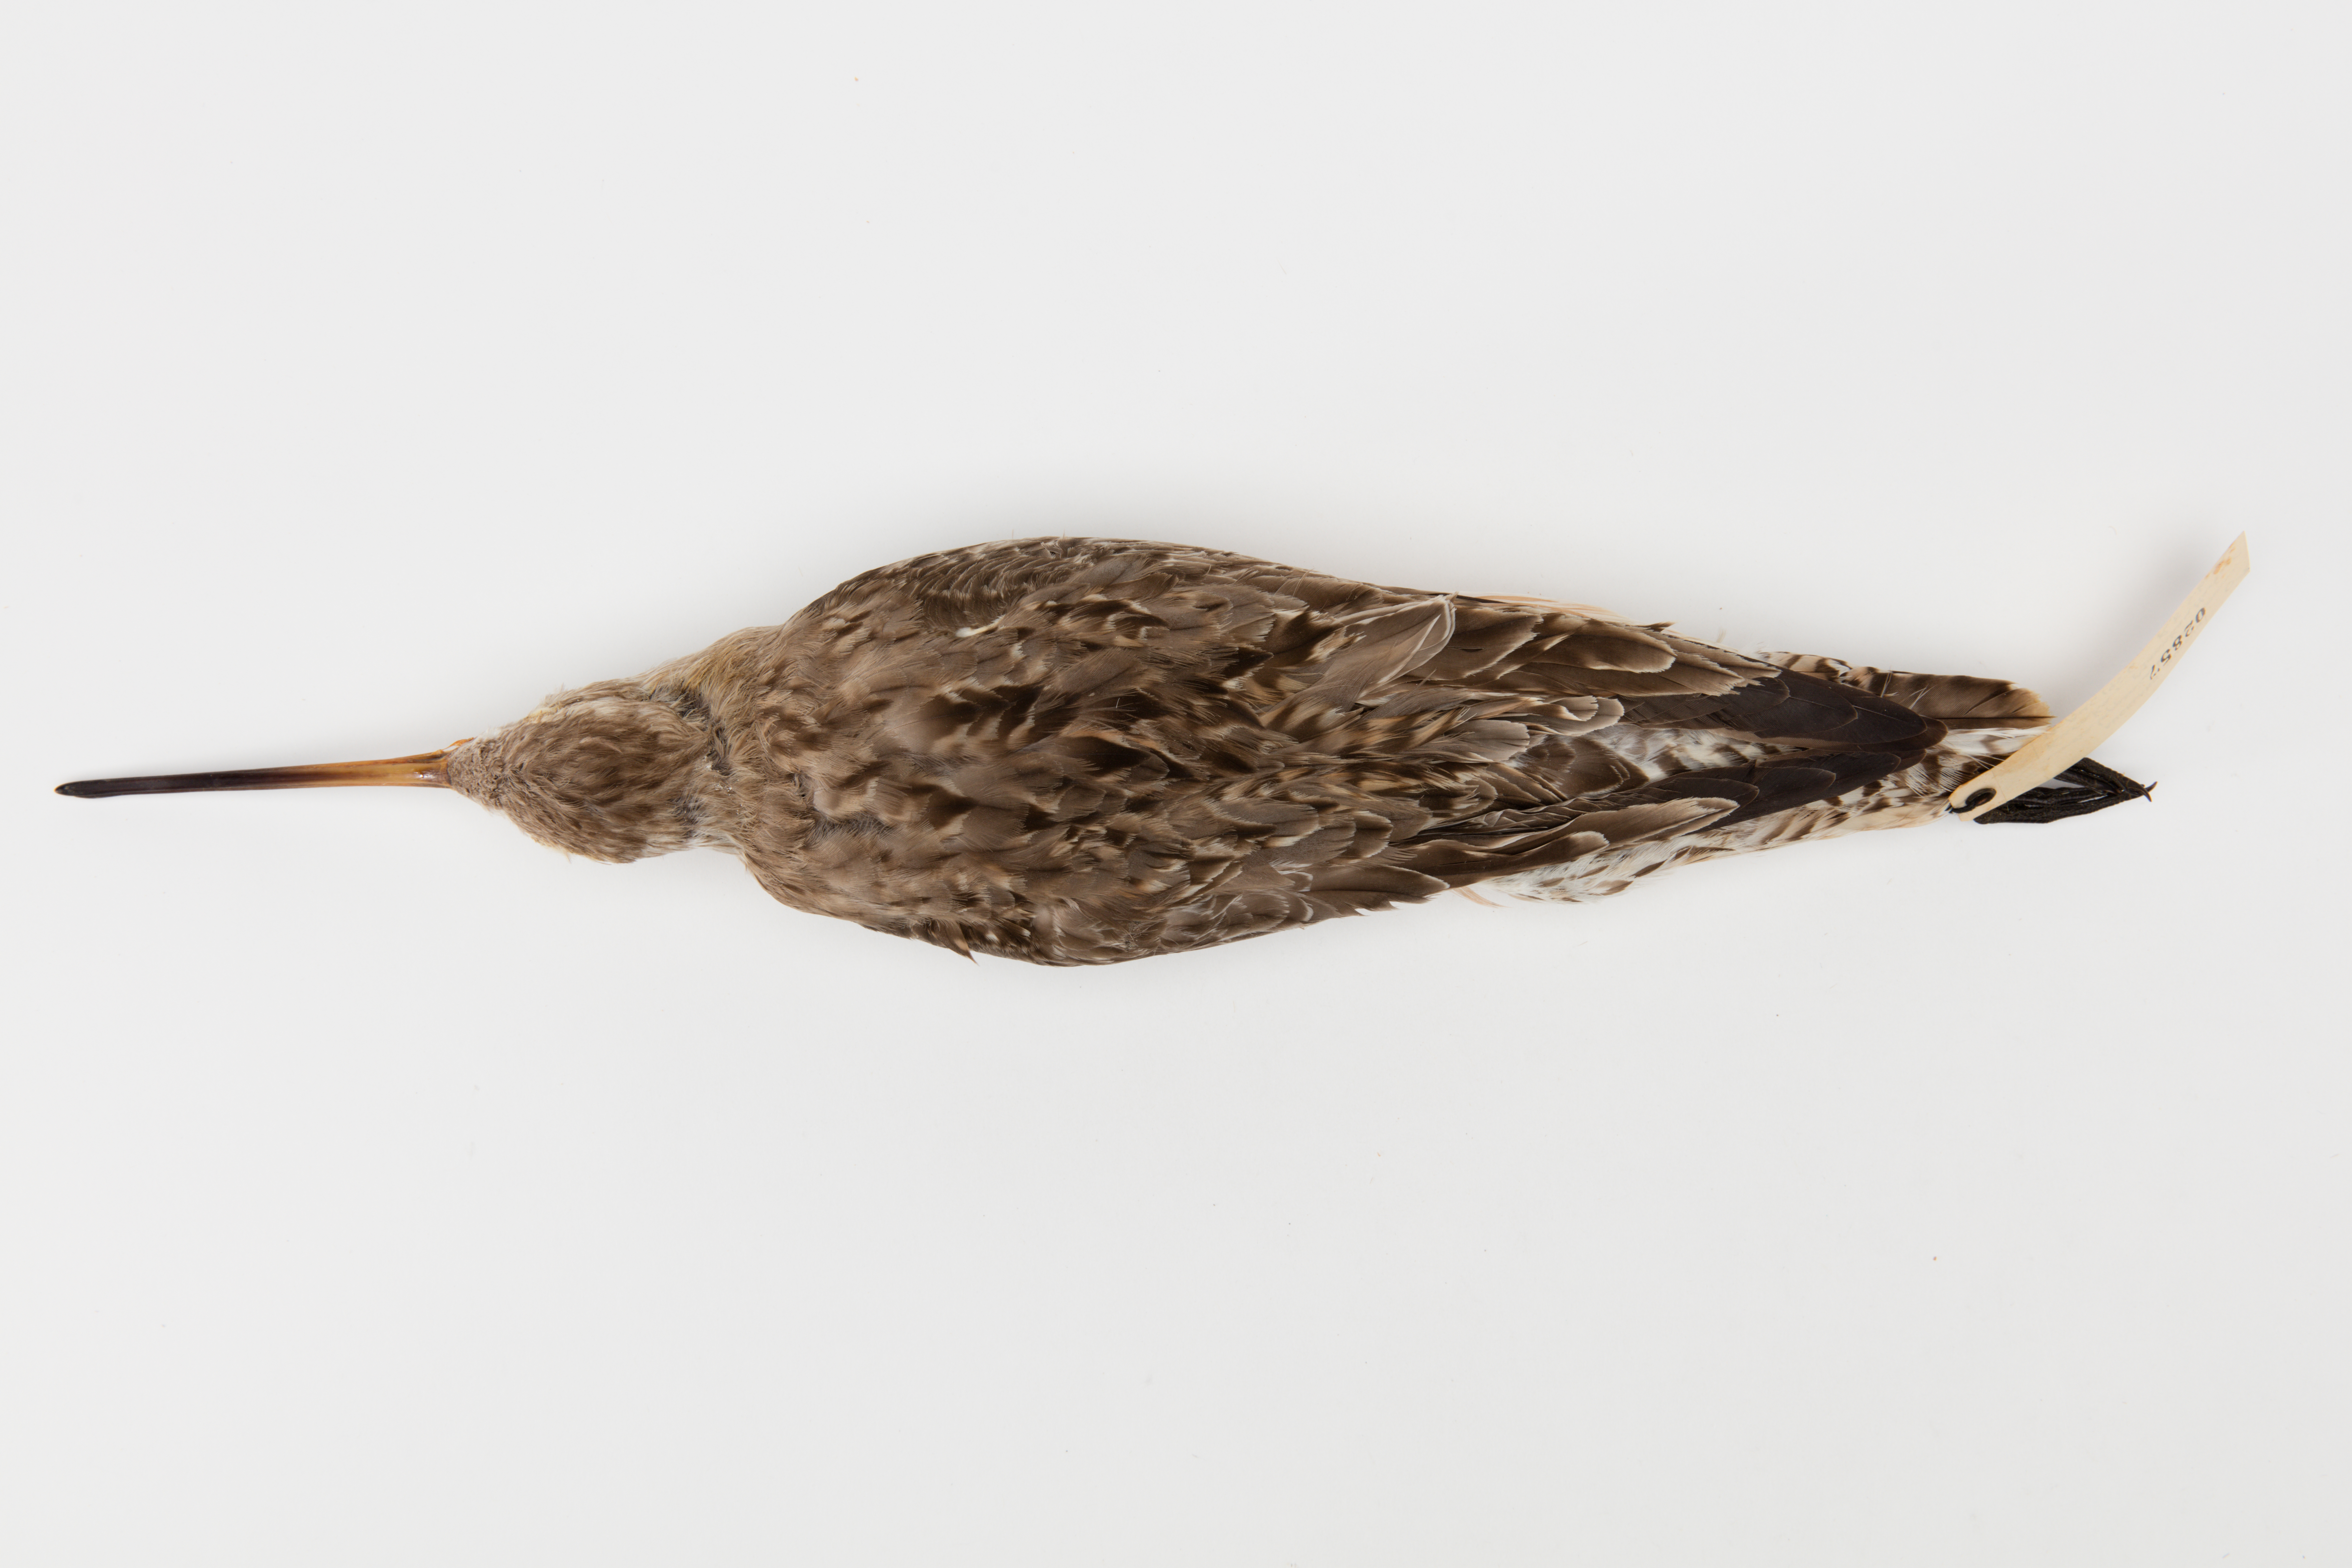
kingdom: Animalia
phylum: Chordata
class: Aves
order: Charadriiformes
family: Scolopacidae
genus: Limosa
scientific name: Limosa lapponica
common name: Bar-tailed godwit
